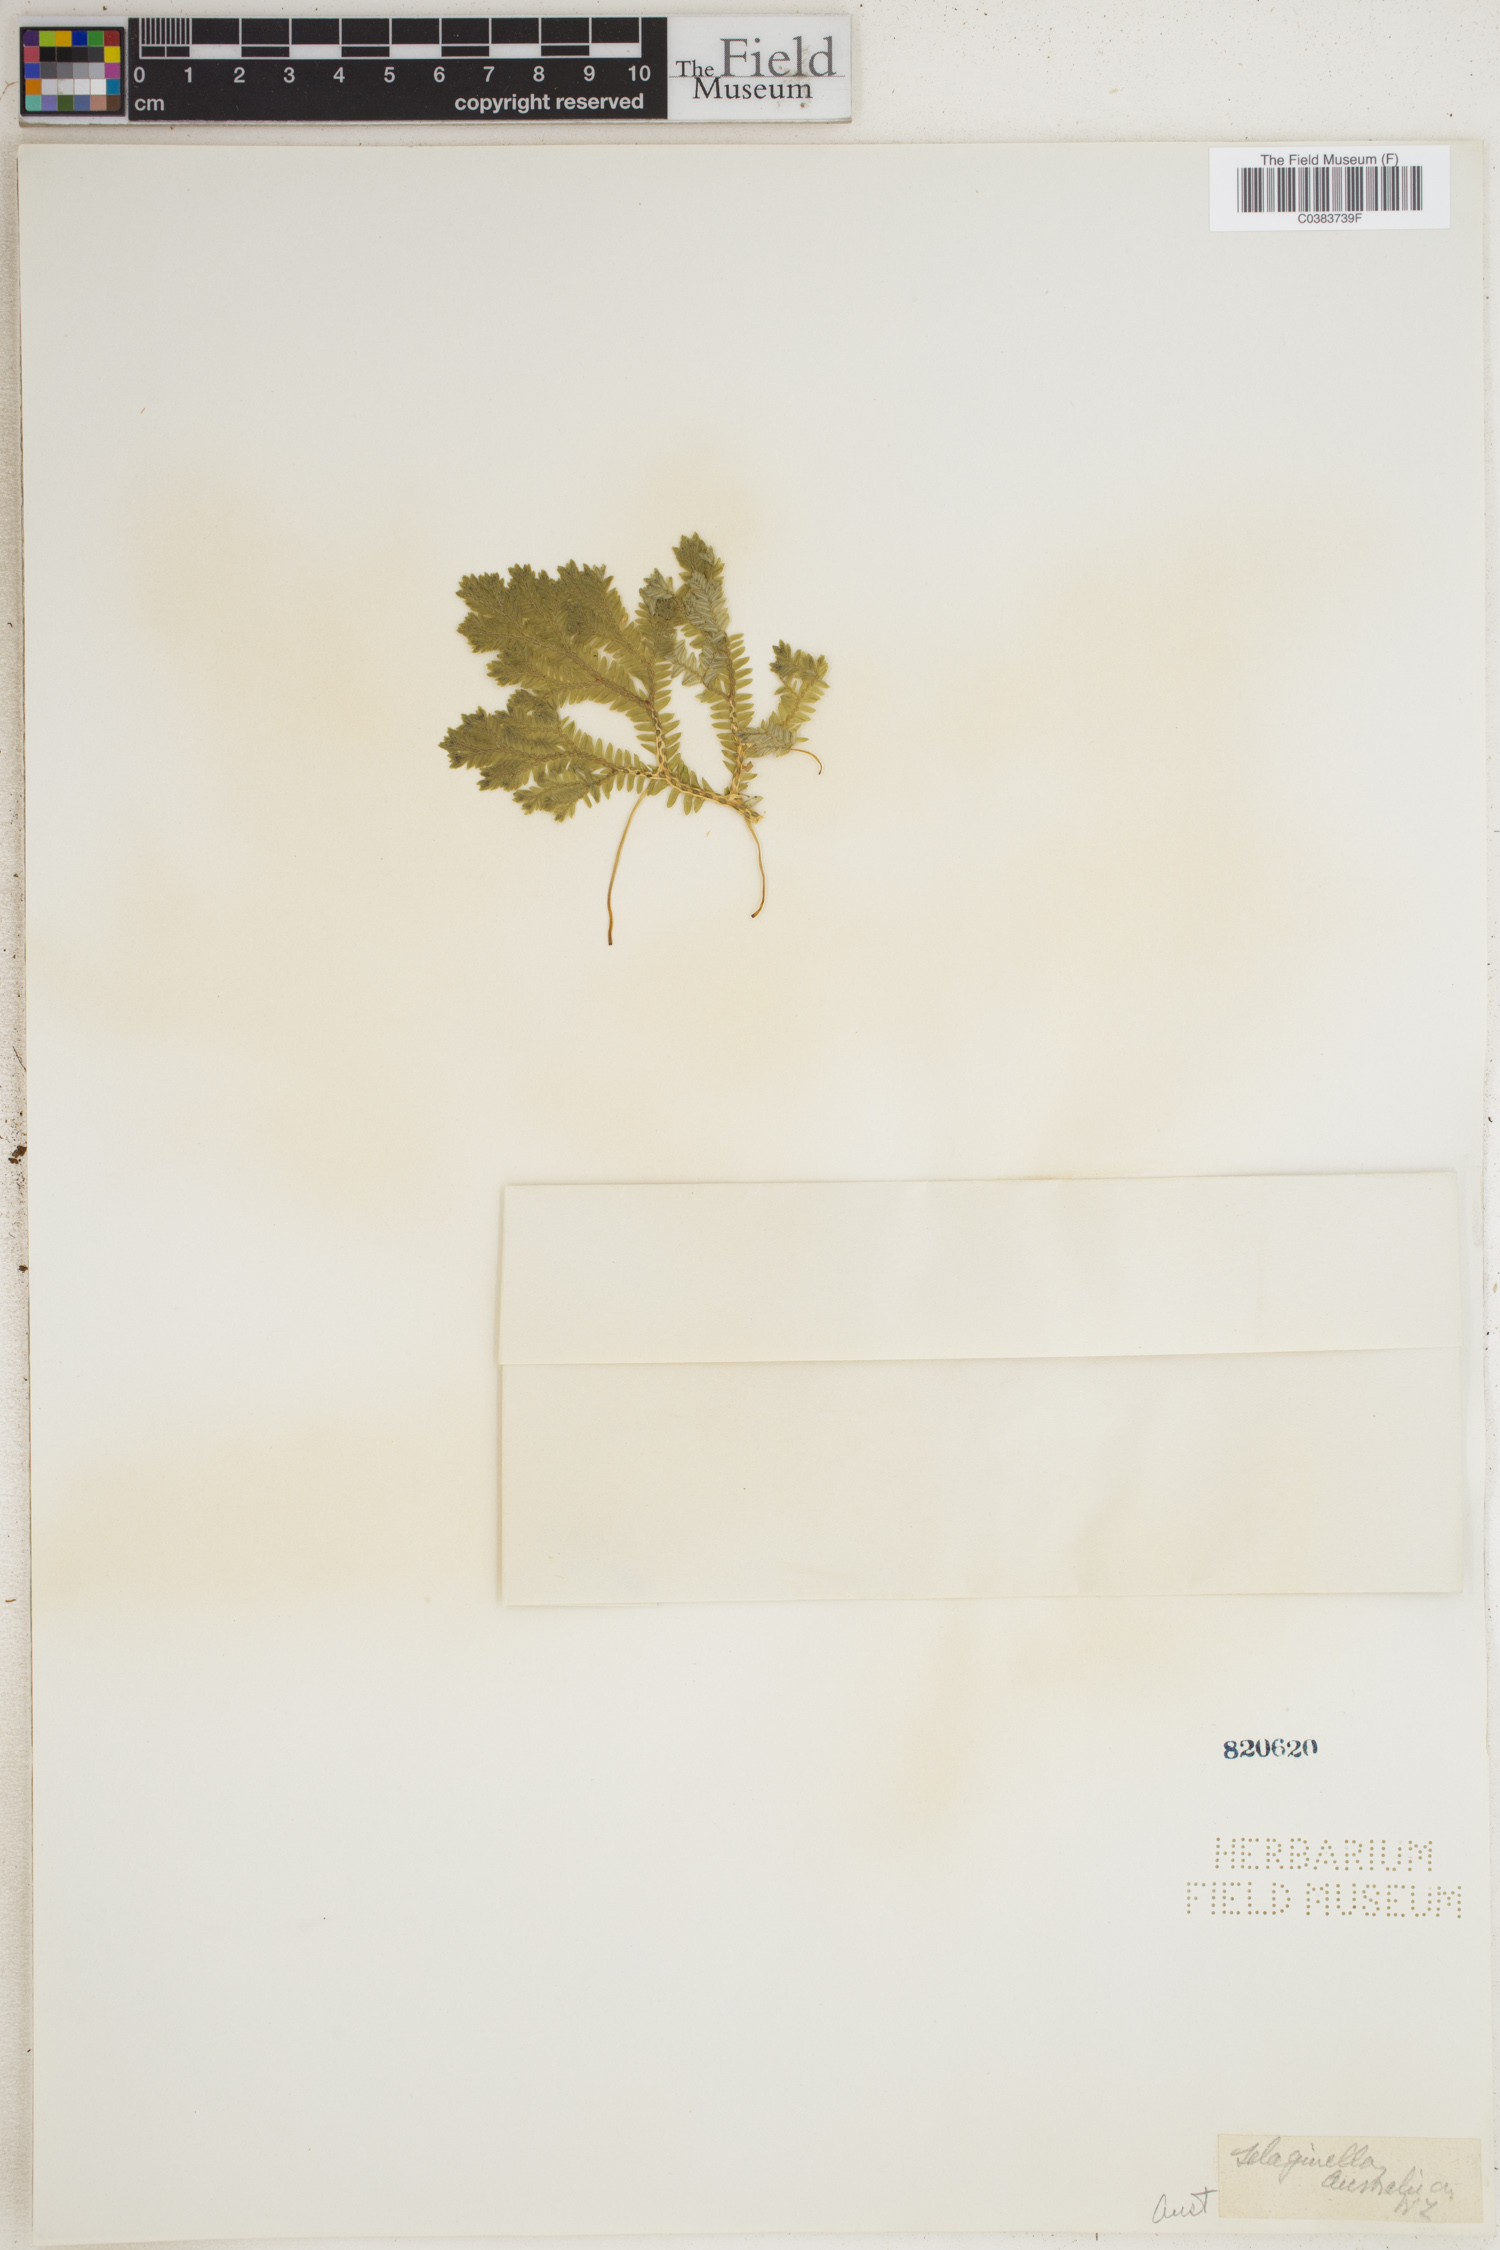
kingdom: Plantae
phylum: Tracheophyta
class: Lycopodiopsida
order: Selaginellales
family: Selaginellaceae
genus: Selaginella
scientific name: Selaginella arbuscula
